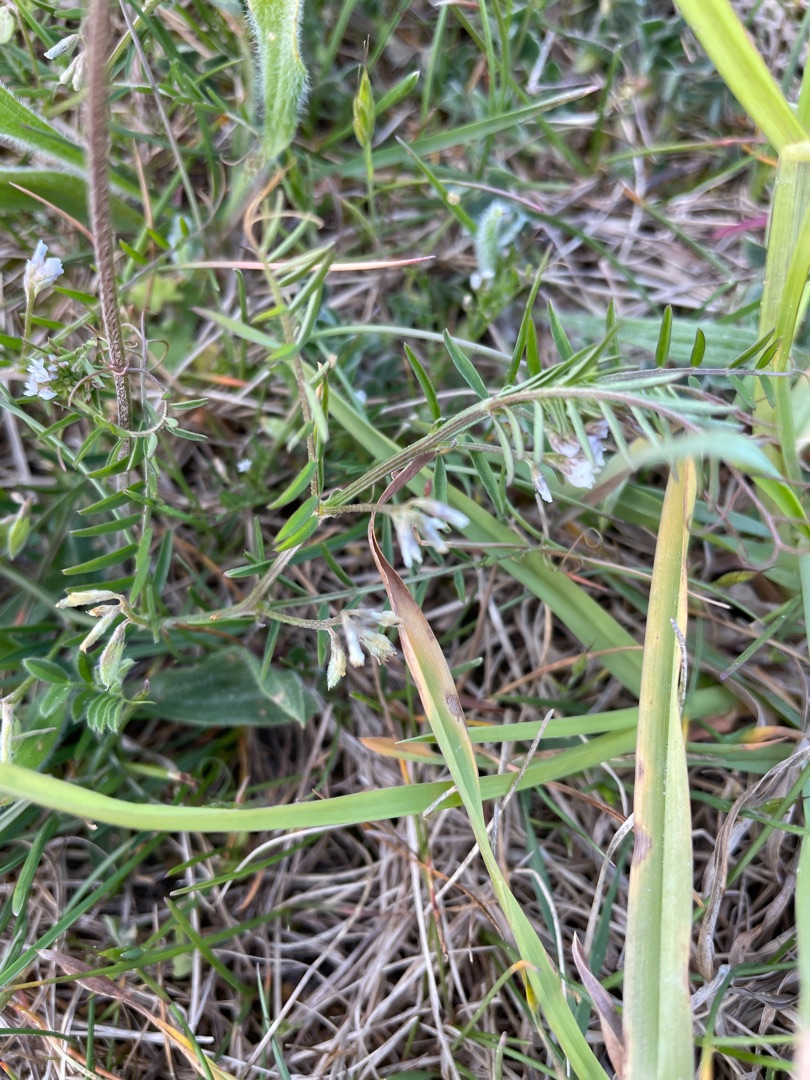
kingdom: Plantae
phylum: Tracheophyta
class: Magnoliopsida
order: Fabales
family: Fabaceae
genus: Vicia
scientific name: Vicia hirsuta
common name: Tofrøet vikke
